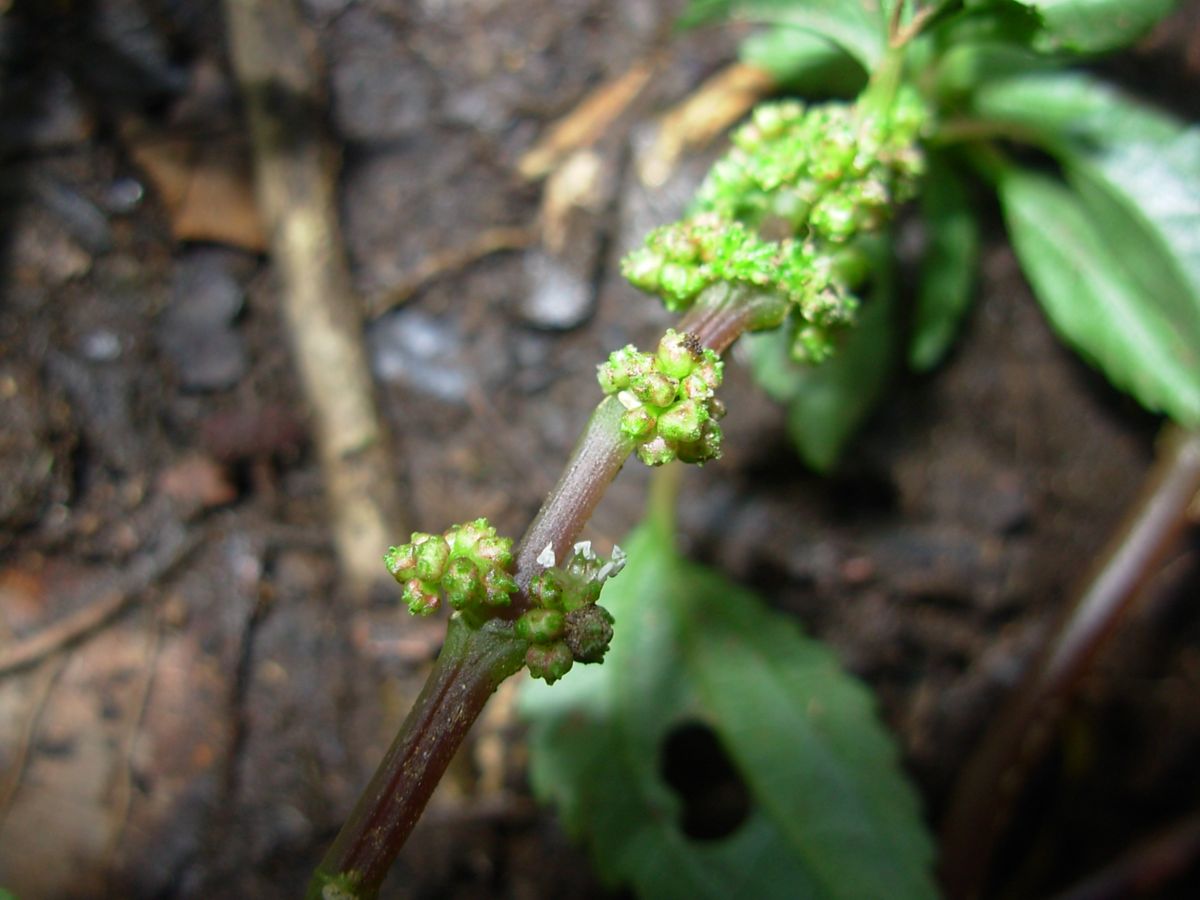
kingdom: Plantae
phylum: Tracheophyta
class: Magnoliopsida
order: Rosales
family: Urticaceae
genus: Pilea
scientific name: Pilea
